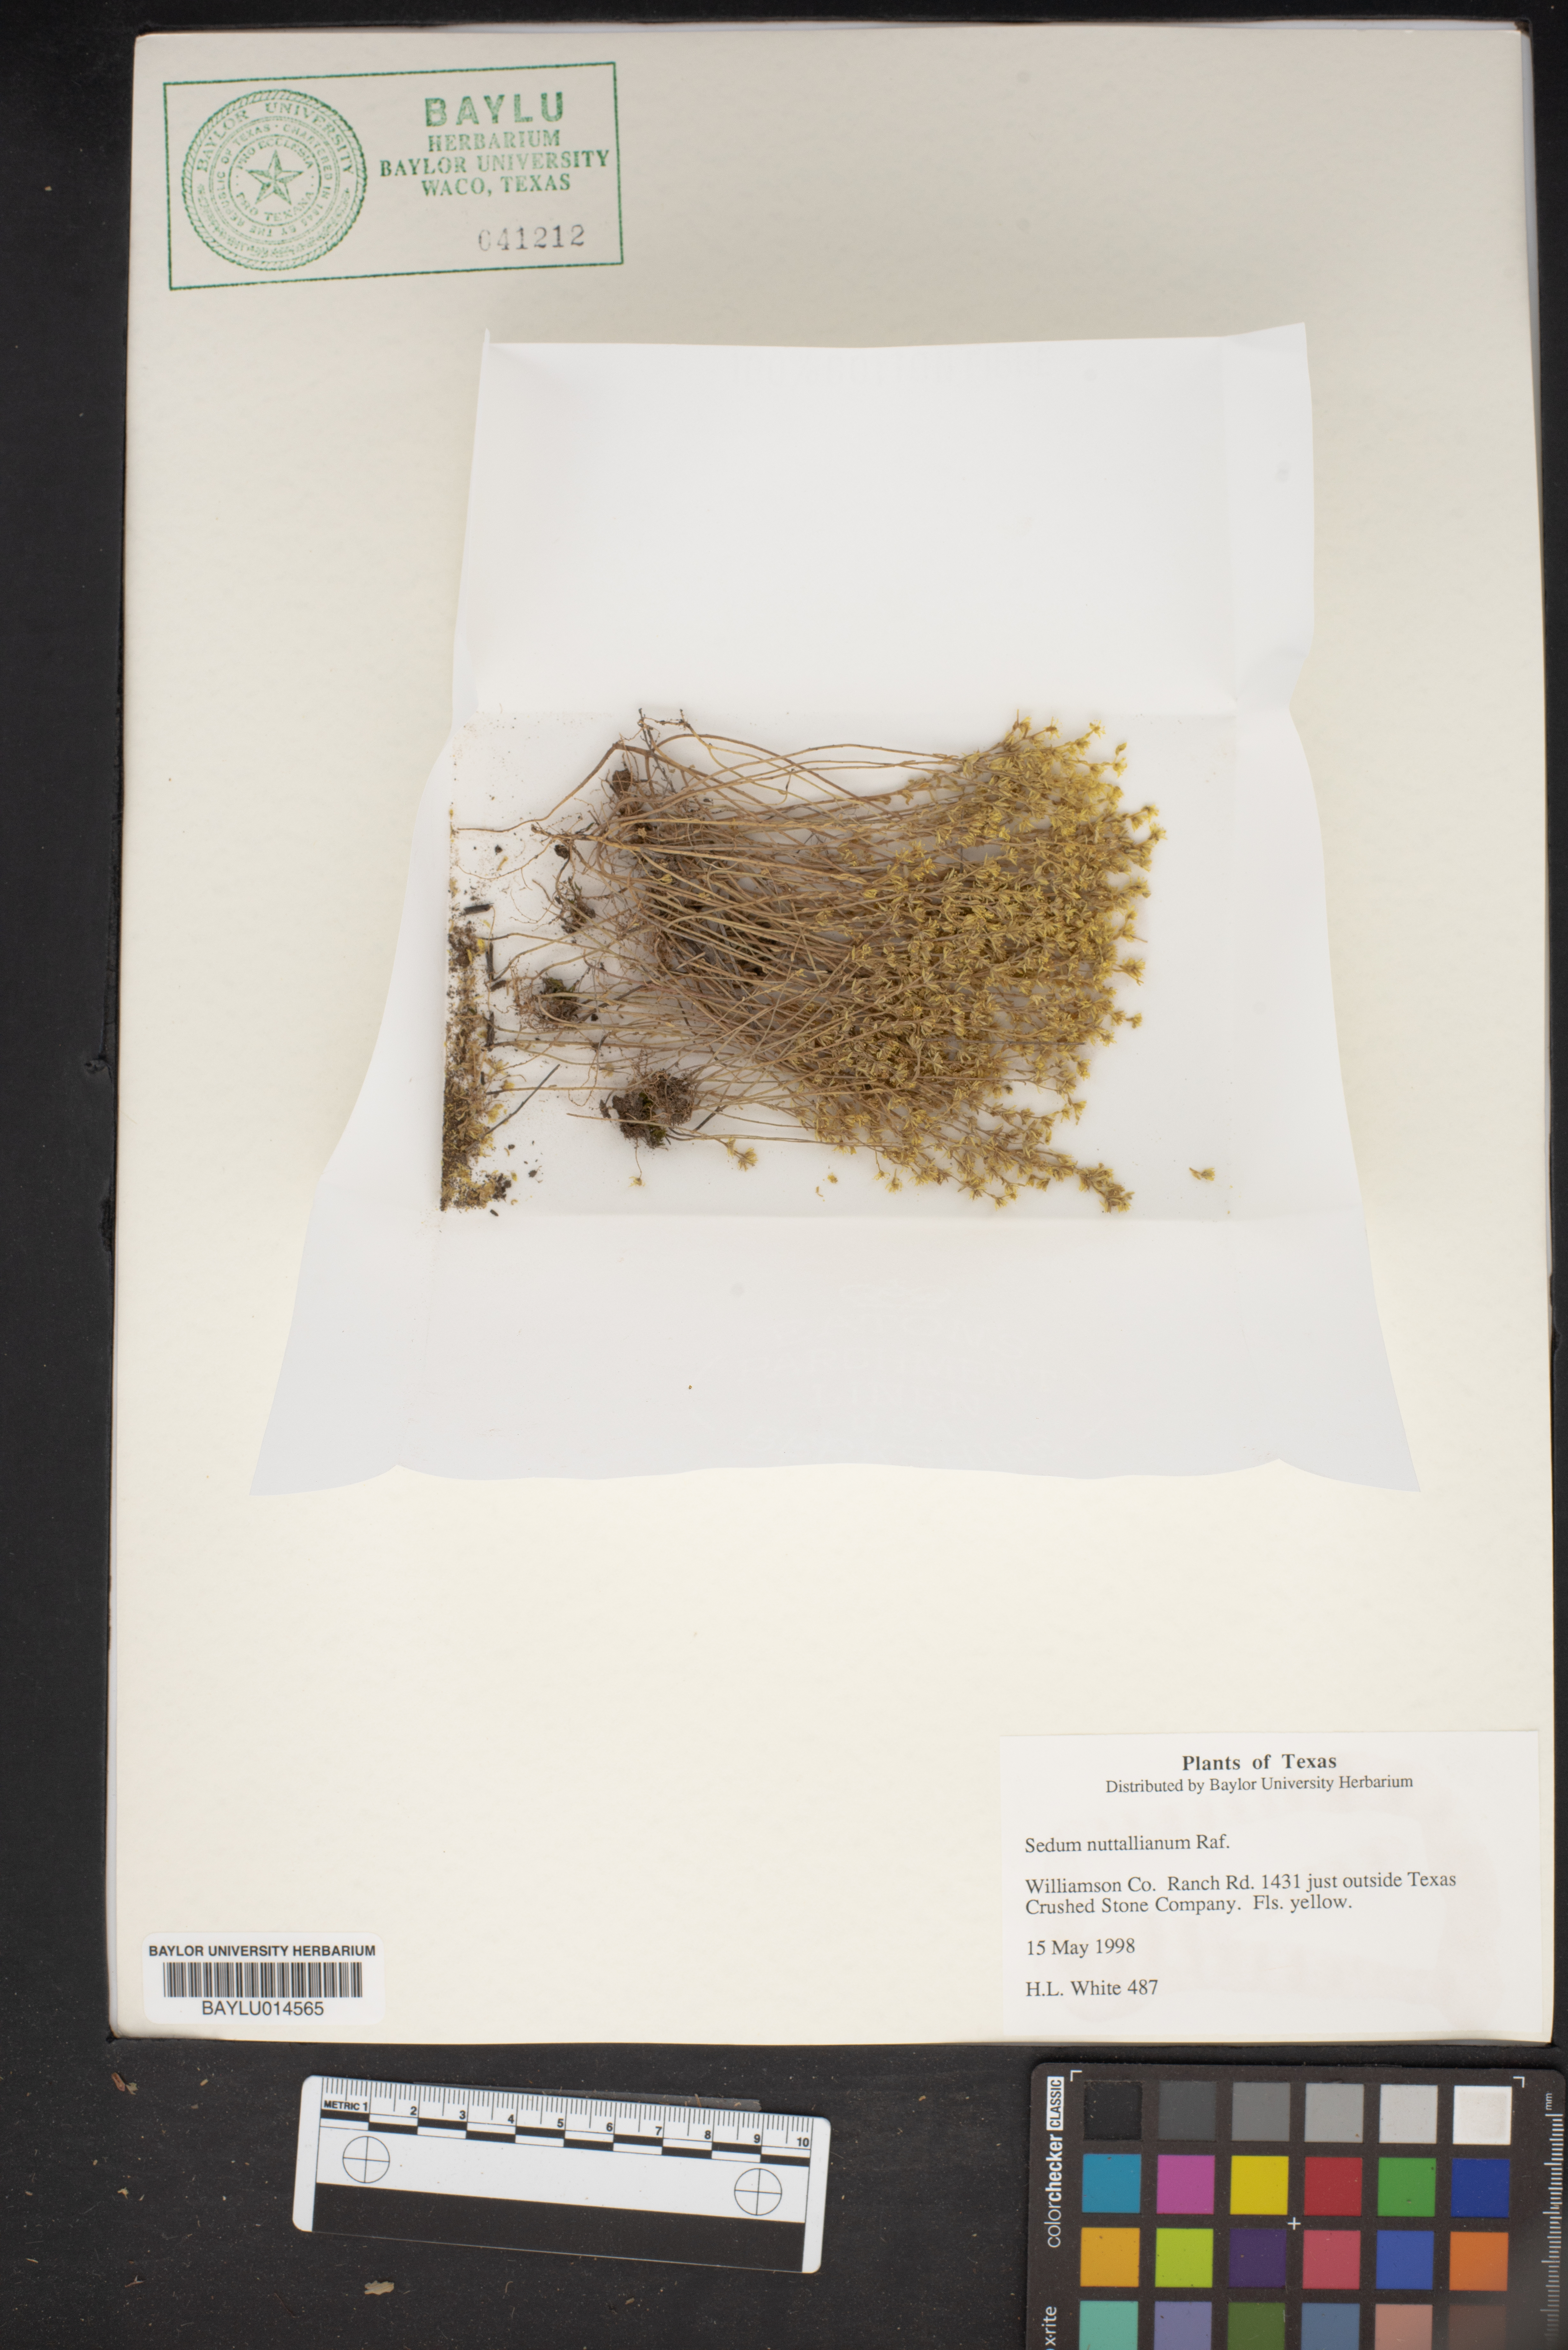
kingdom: Plantae
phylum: Tracheophyta
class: Magnoliopsida
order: Saxifragales
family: Crassulaceae
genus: Sedum
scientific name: Sedum nuttallii
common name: Yellow stonecrop
